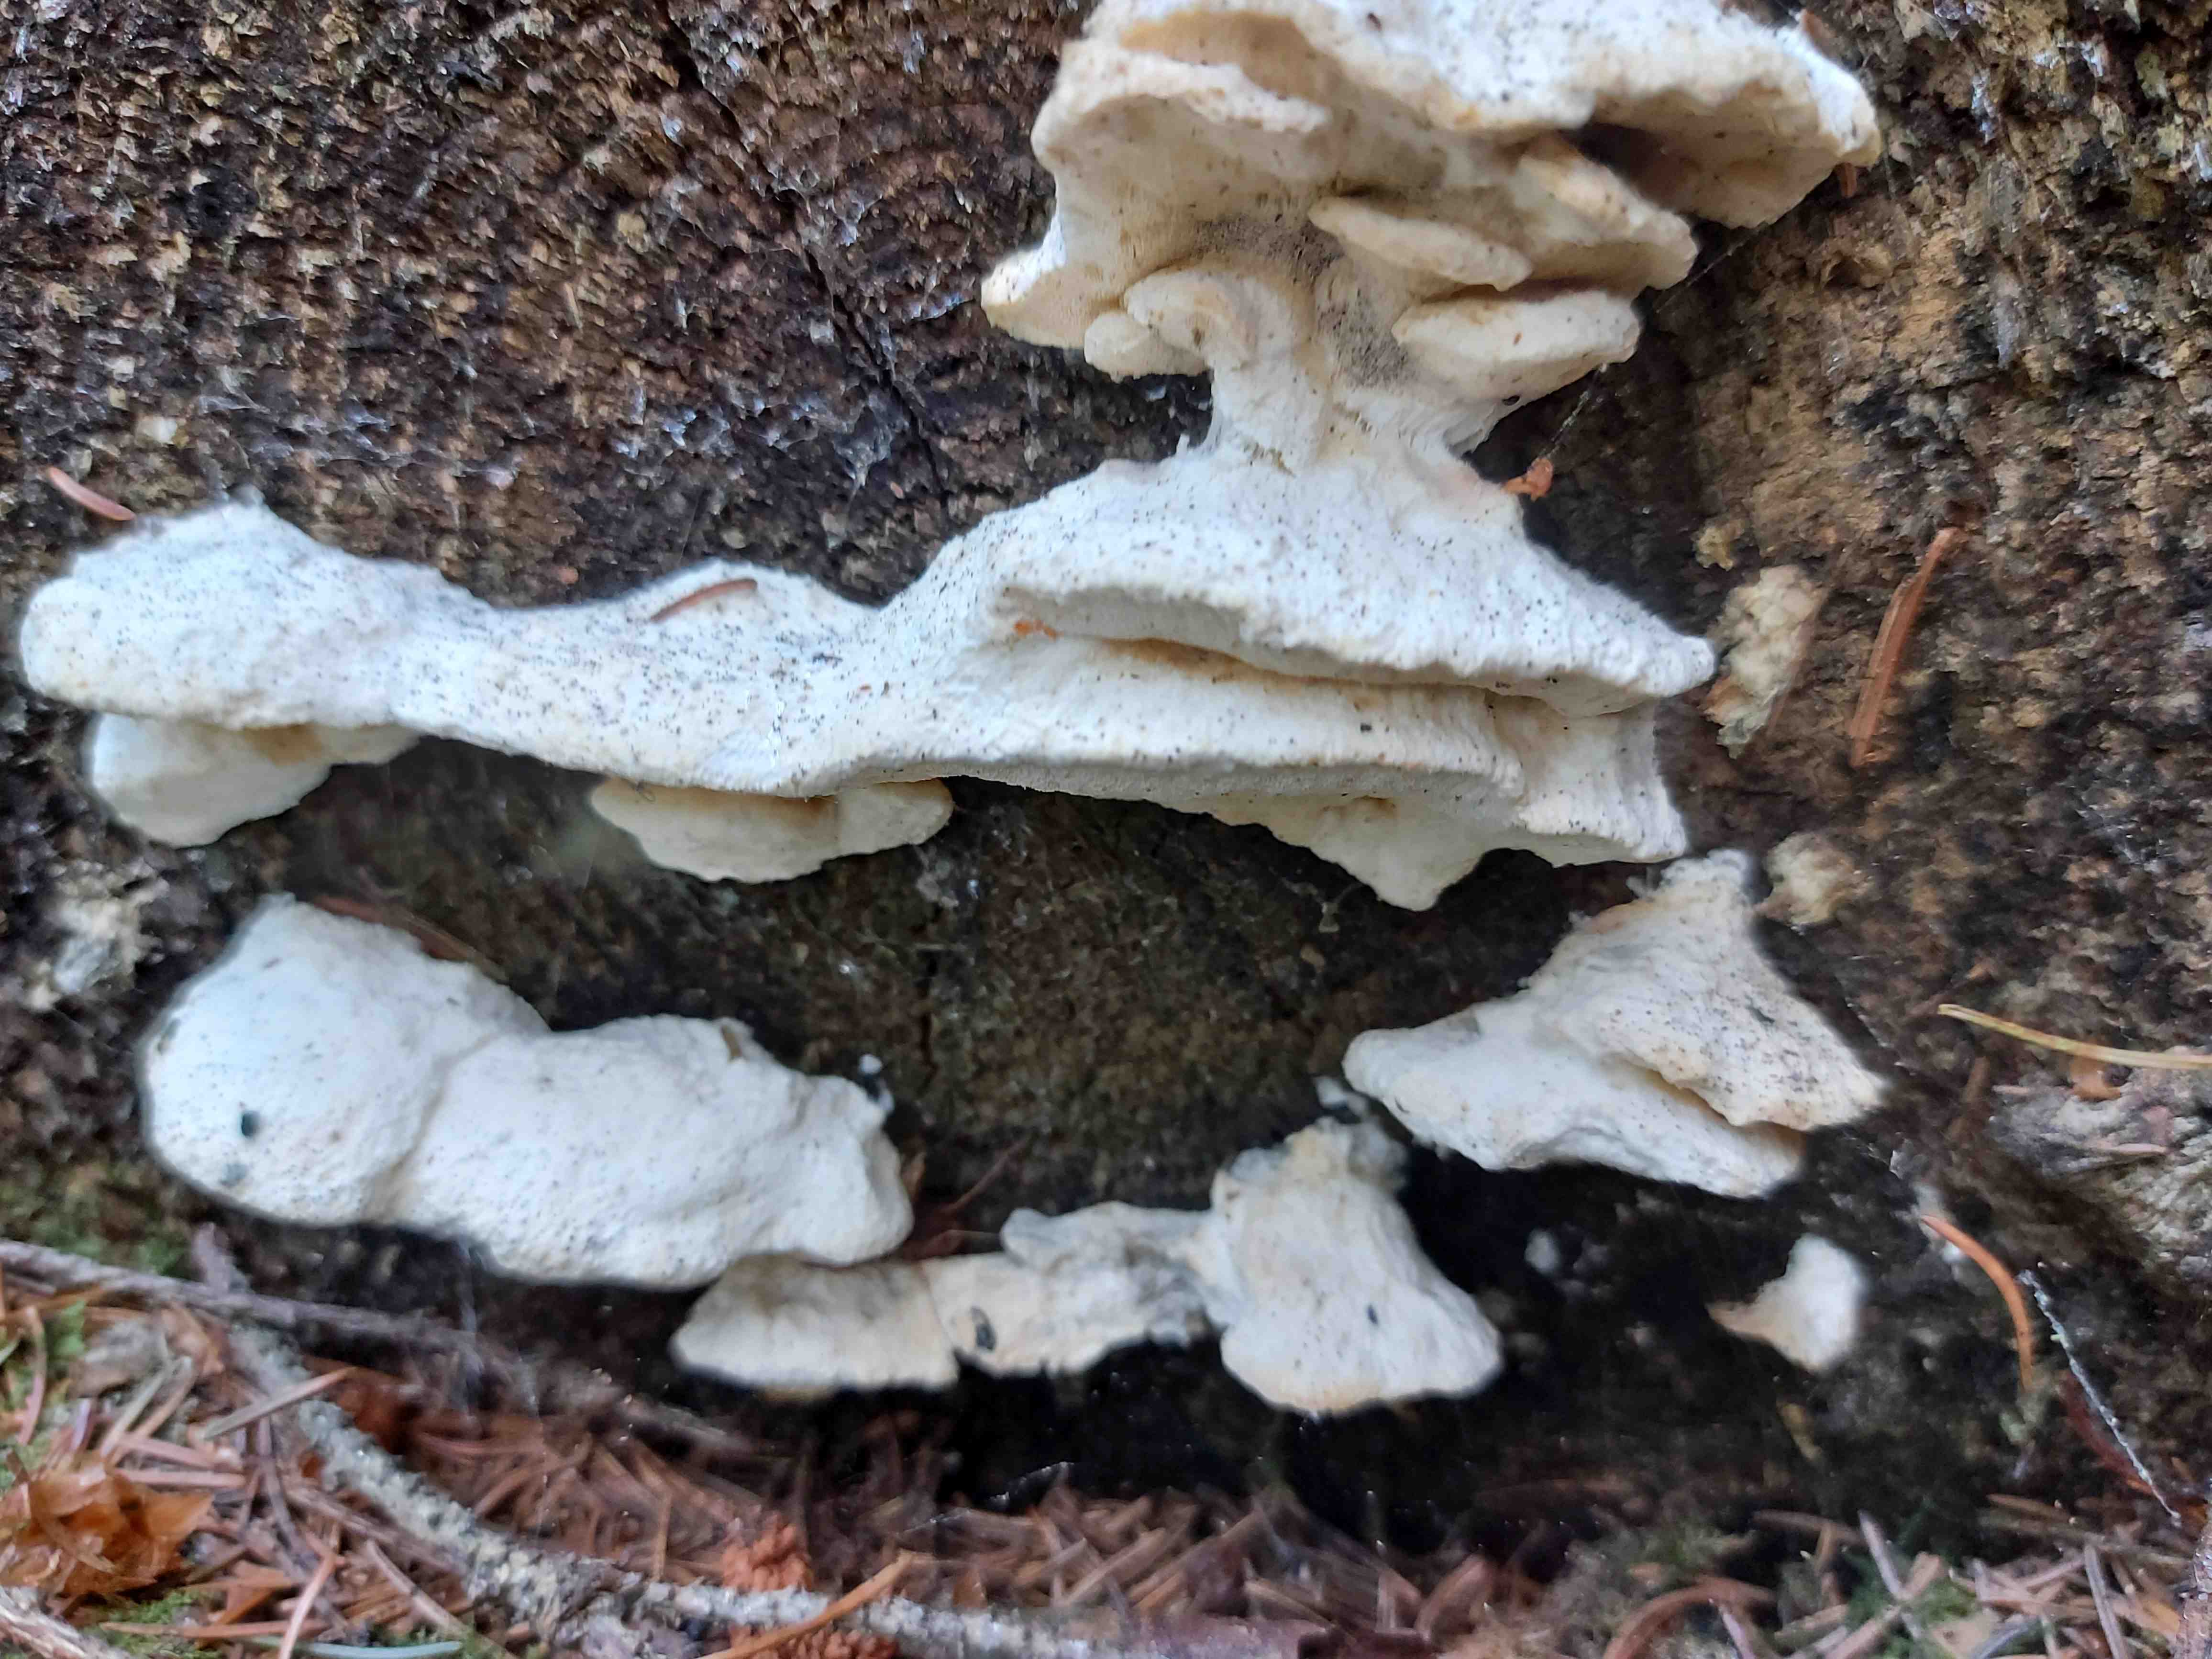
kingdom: Fungi
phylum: Basidiomycota
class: Agaricomycetes
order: Polyporales
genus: Amaropostia
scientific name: Amaropostia stiptica
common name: bitter kødporesvamp
